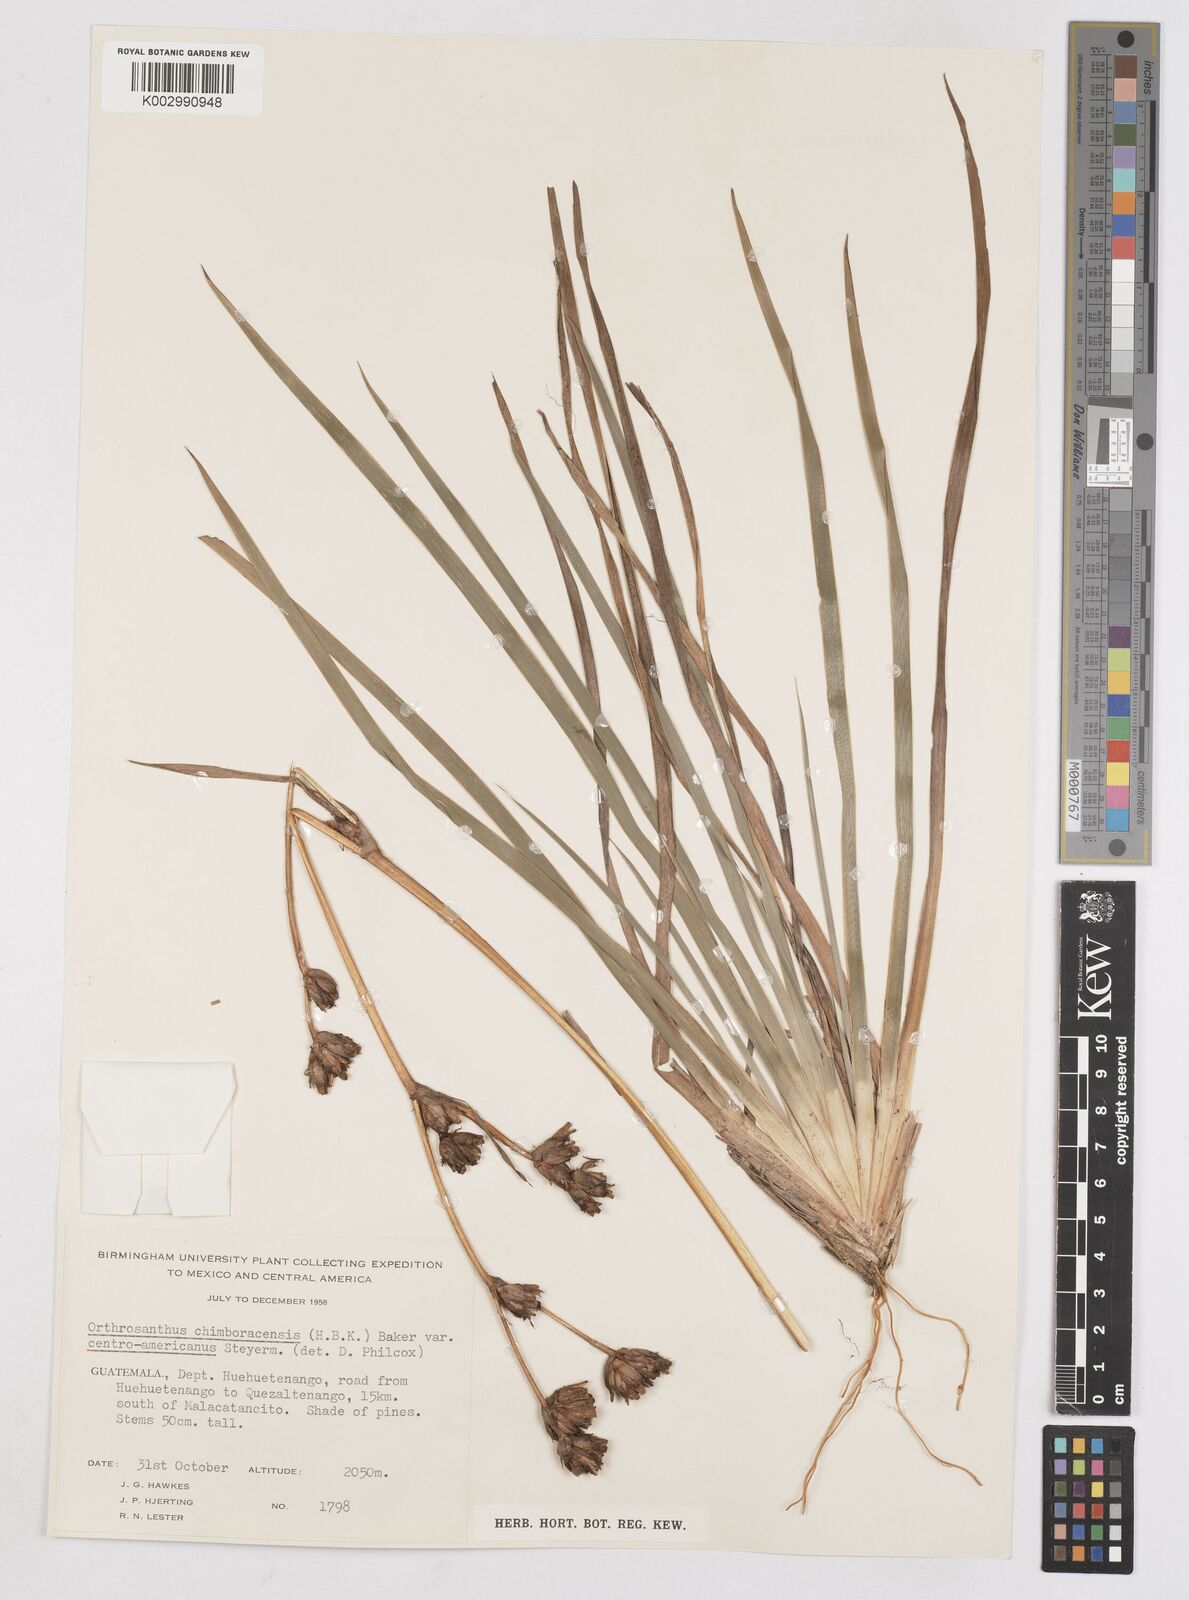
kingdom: Plantae
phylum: Tracheophyta
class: Liliopsida
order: Asparagales
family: Iridaceae
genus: Orthrosanthus
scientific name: Orthrosanthus chimboracensis
